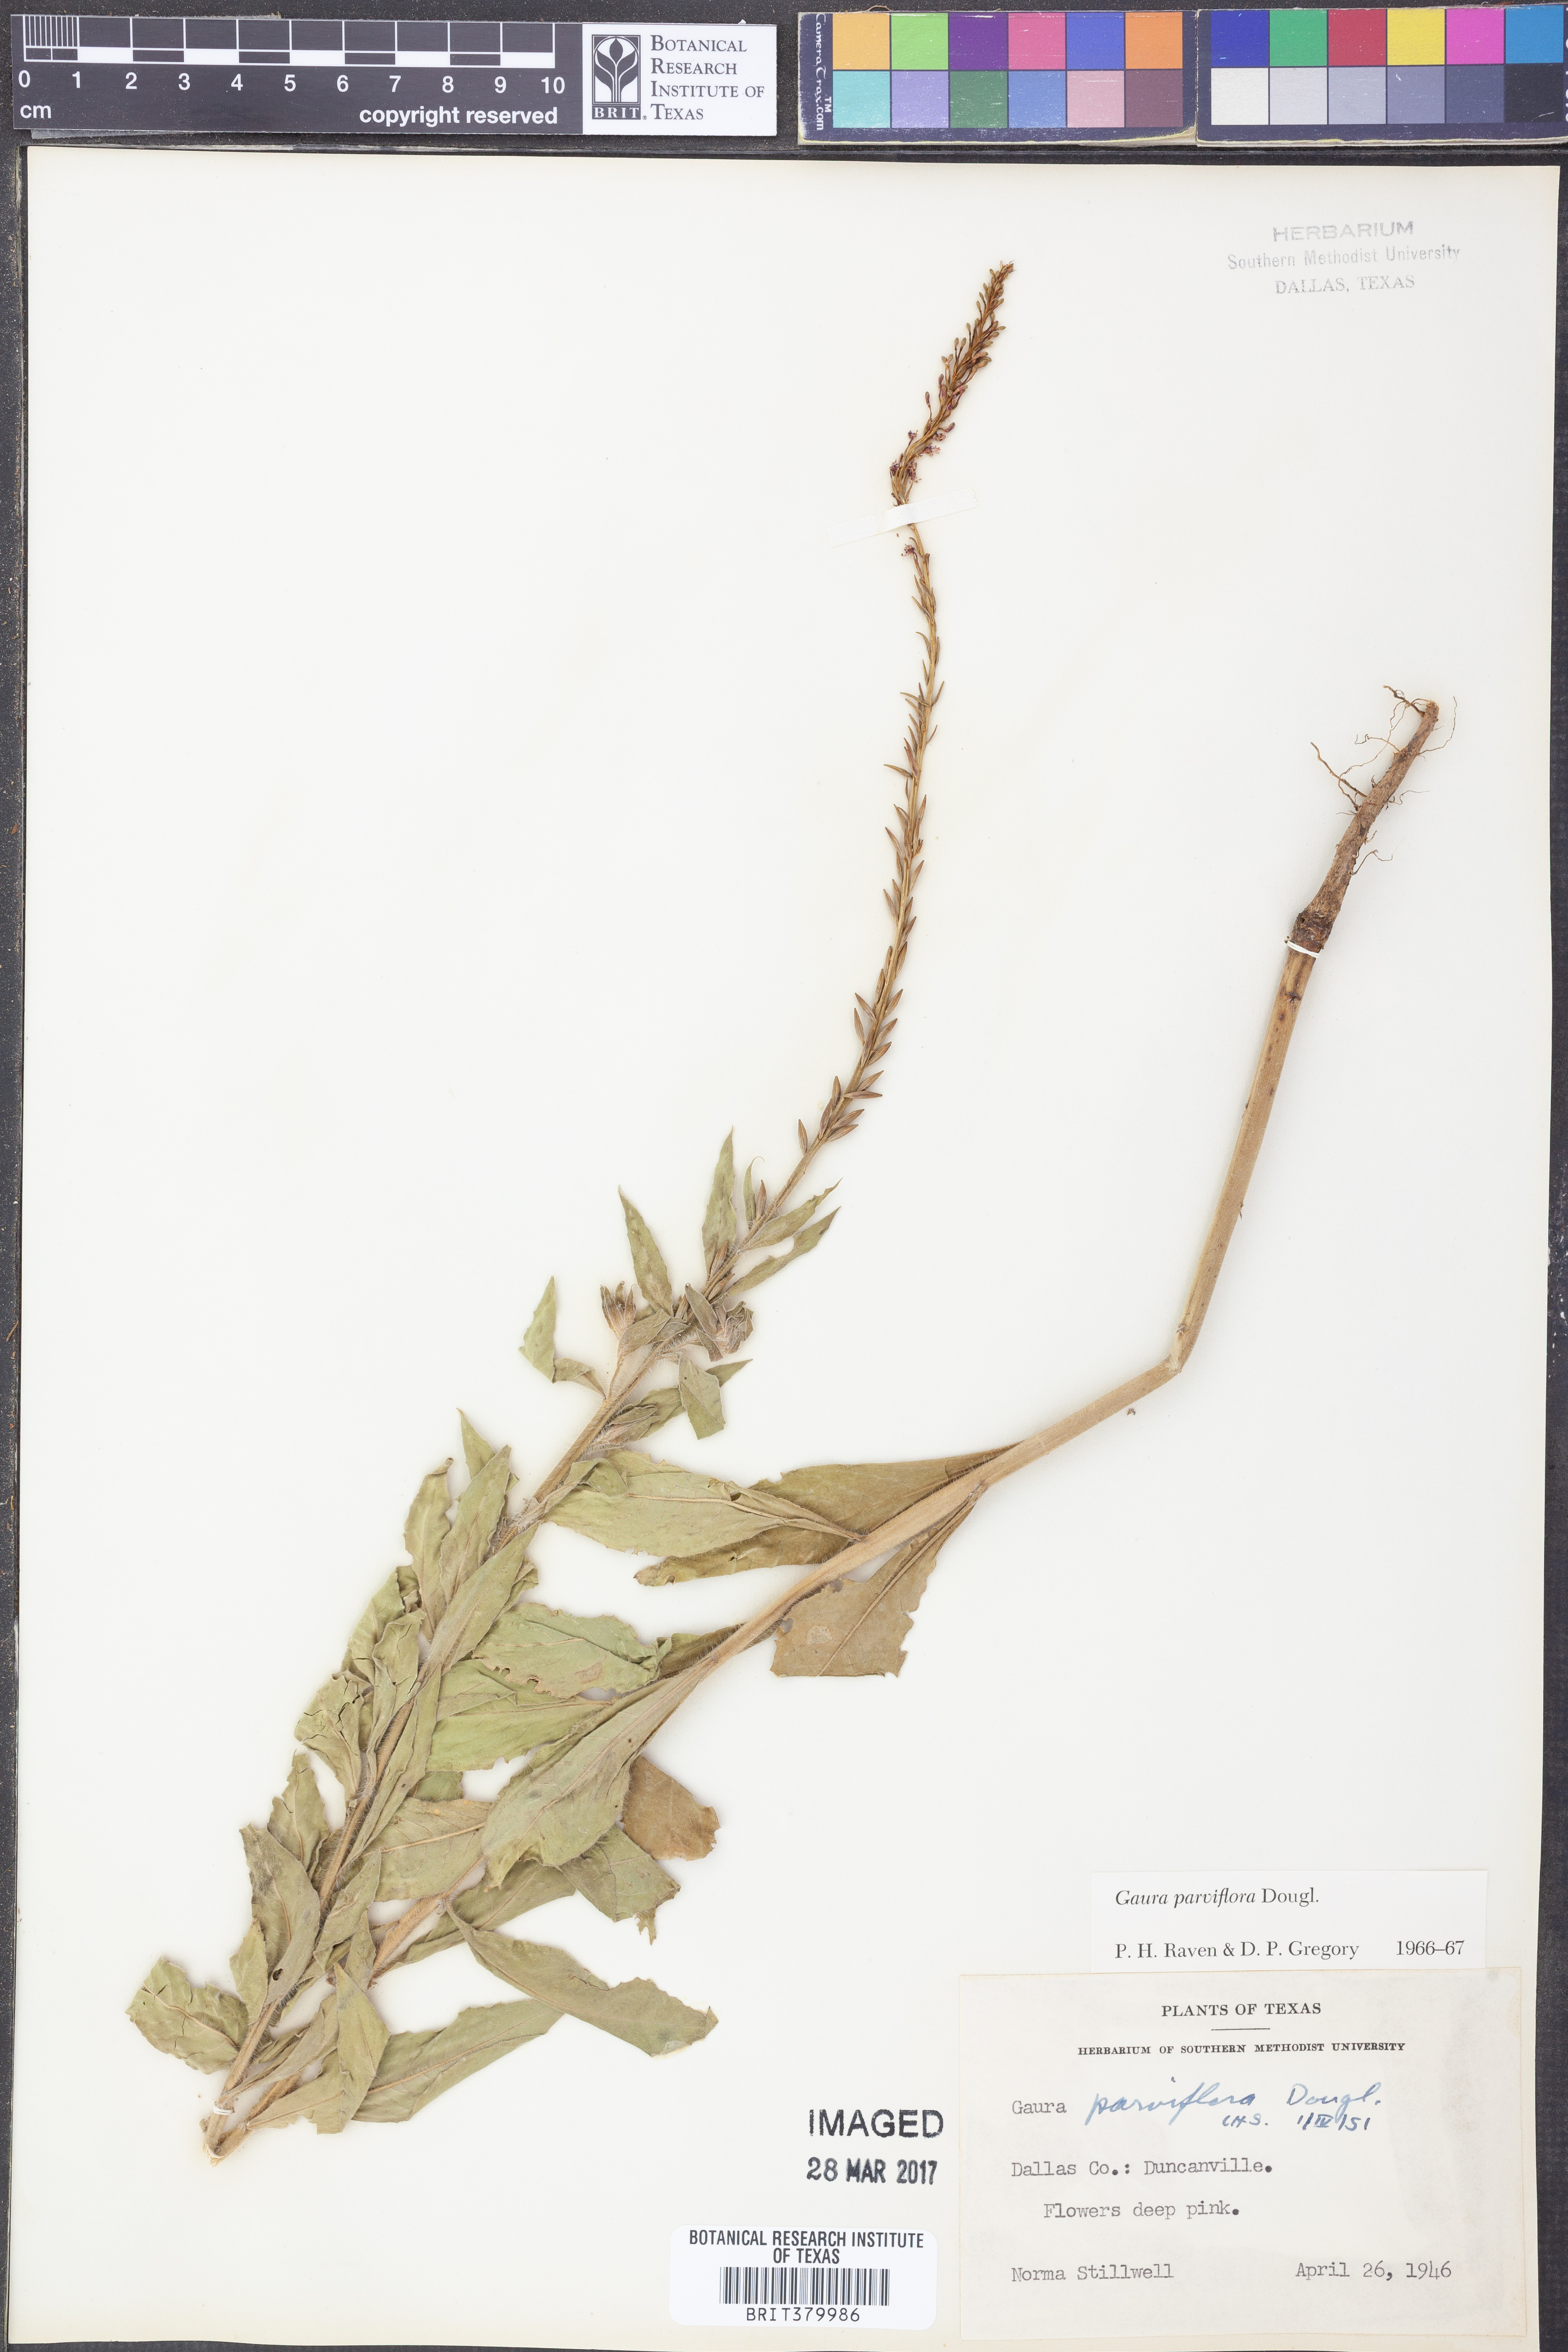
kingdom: Plantae
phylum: Tracheophyta
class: Magnoliopsida
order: Myrtales
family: Onagraceae
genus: Oenothera
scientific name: Oenothera curtiflora
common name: Velvetweed
